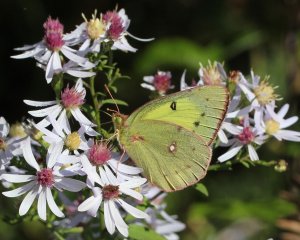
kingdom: Animalia
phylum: Arthropoda
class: Insecta
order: Lepidoptera
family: Pieridae
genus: Colias
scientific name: Colias philodice
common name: Clouded Sulphur
